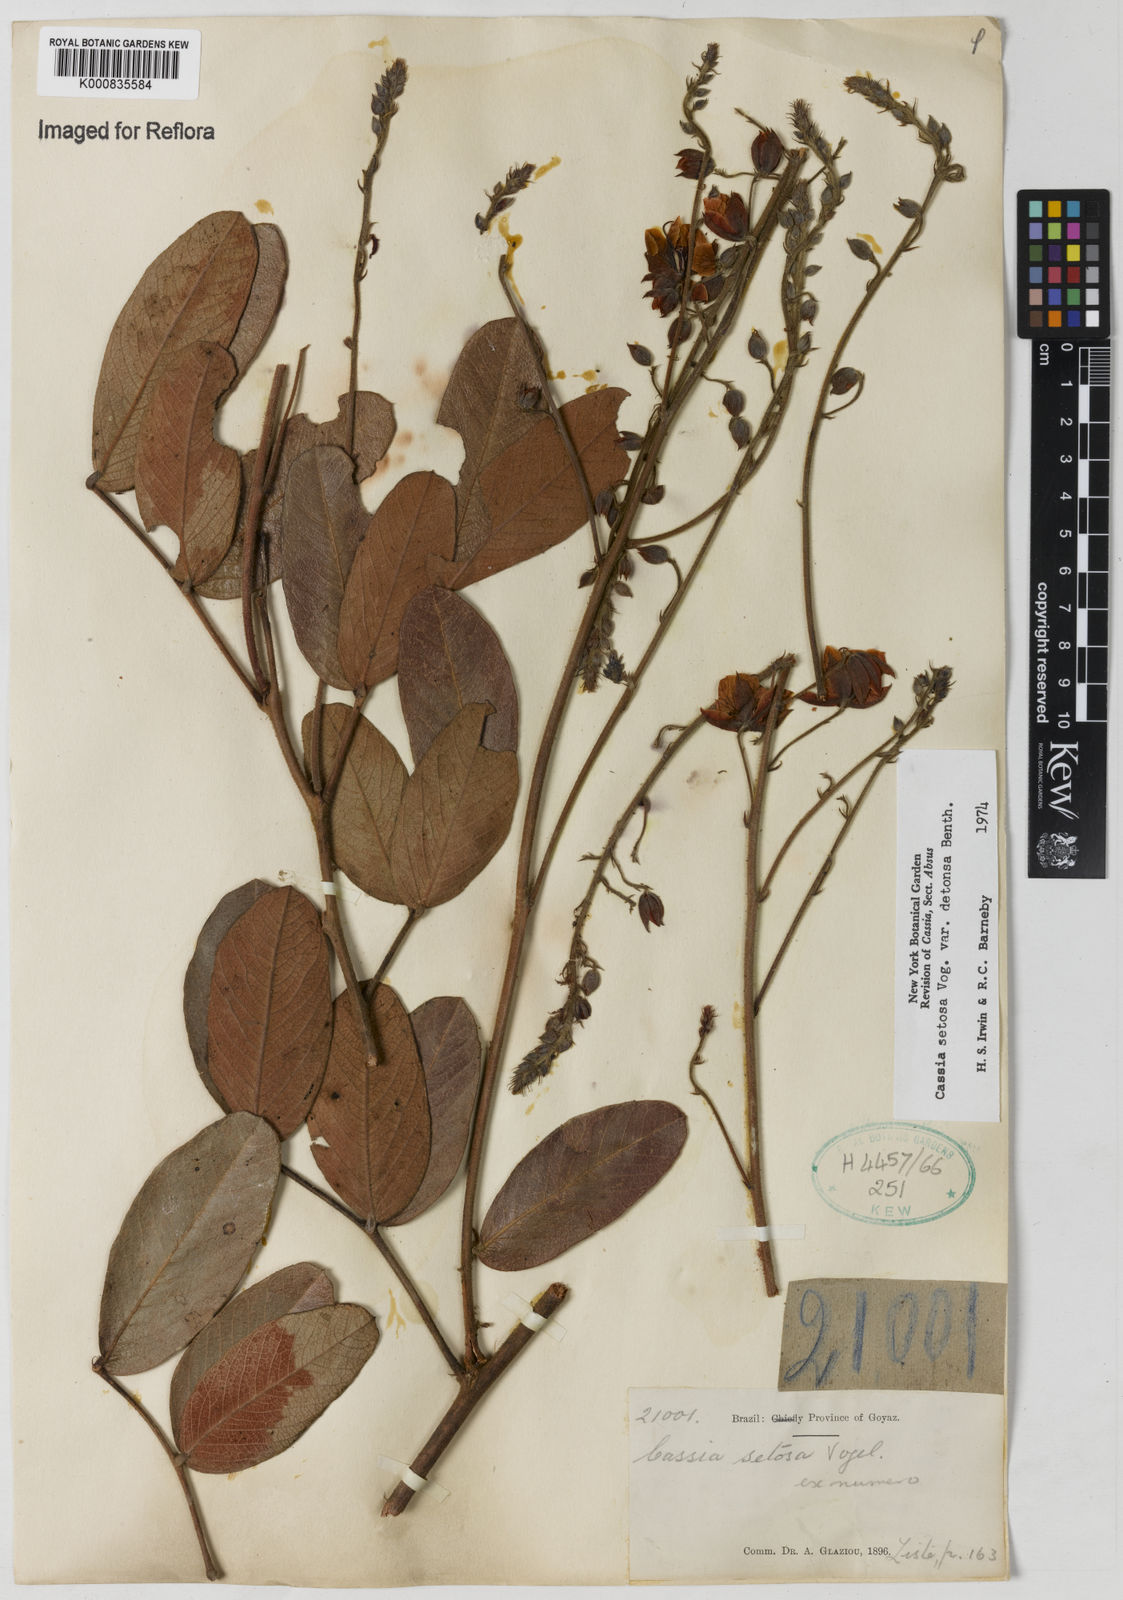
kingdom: Plantae
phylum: Tracheophyta
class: Magnoliopsida
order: Fabales
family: Fabaceae
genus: Chamaecrista
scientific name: Chamaecrista setosa
